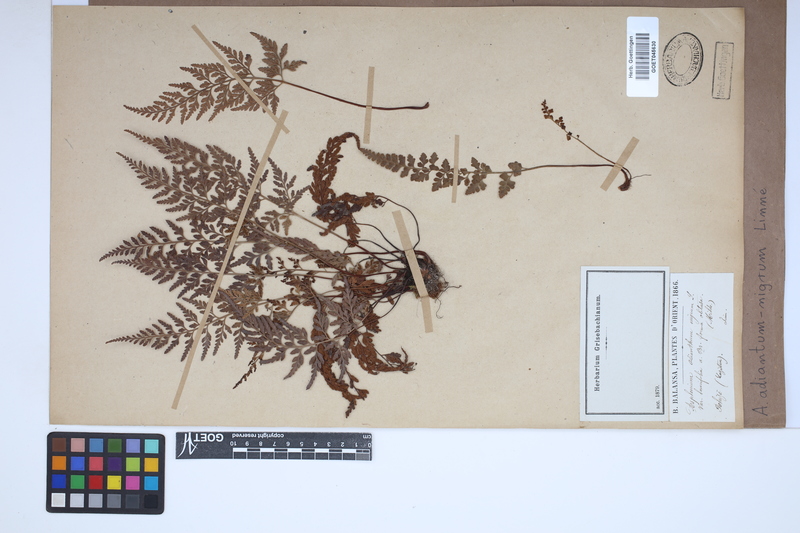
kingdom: Plantae
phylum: Tracheophyta
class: Polypodiopsida
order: Polypodiales
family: Aspleniaceae
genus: Asplenium
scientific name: Asplenium adiantum-nigrum
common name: Black spleenwort
